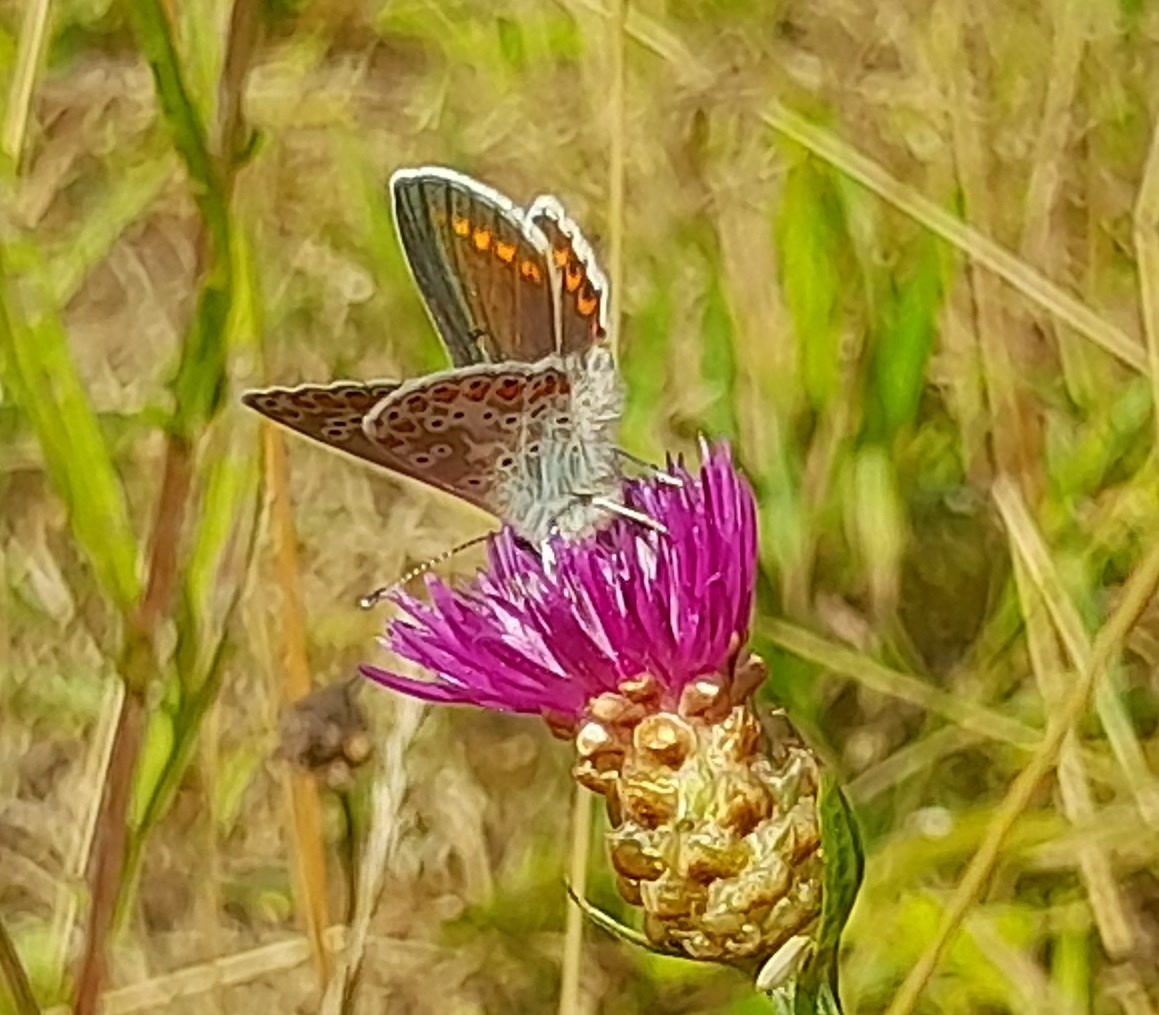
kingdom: Animalia
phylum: Arthropoda
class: Insecta
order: Lepidoptera
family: Lycaenidae
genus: Aricia
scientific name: Aricia agestis
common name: Rødplettet blåfugl
